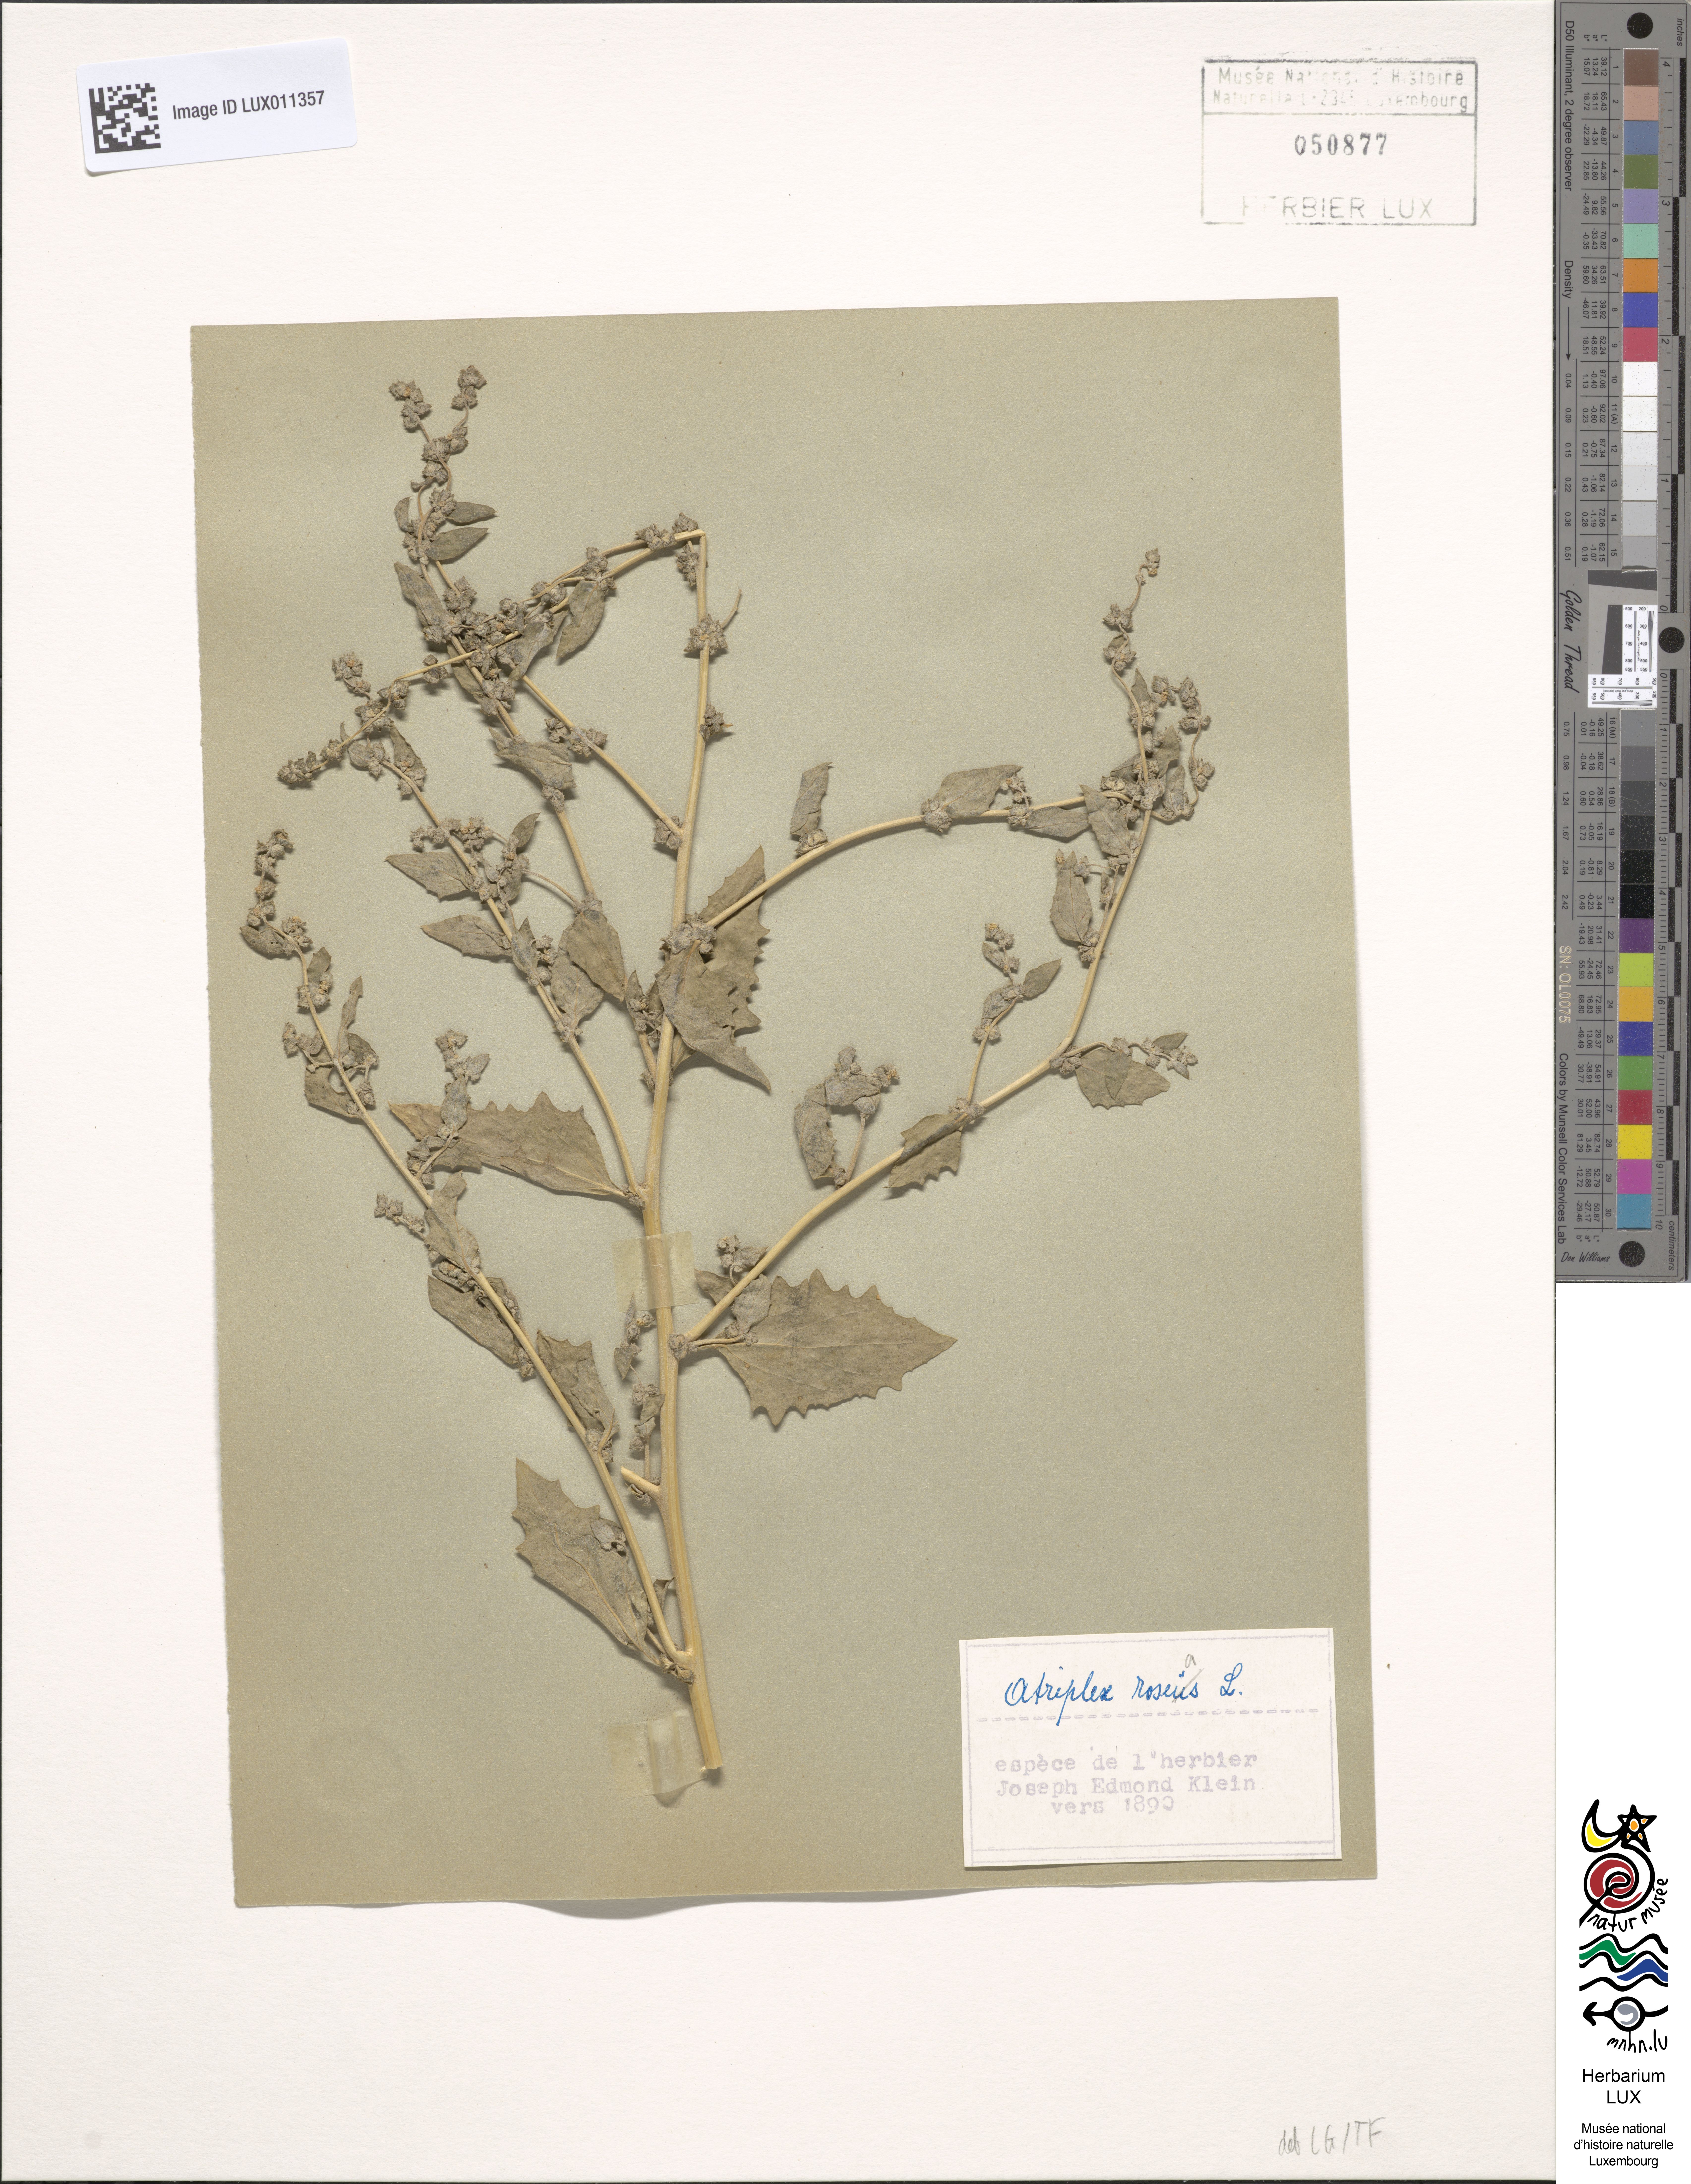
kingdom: Plantae
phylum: Tracheophyta
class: Magnoliopsida
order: Caryophyllales
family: Amaranthaceae
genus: Atriplex
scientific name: Atriplex rosea
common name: Tumbling saltweed
